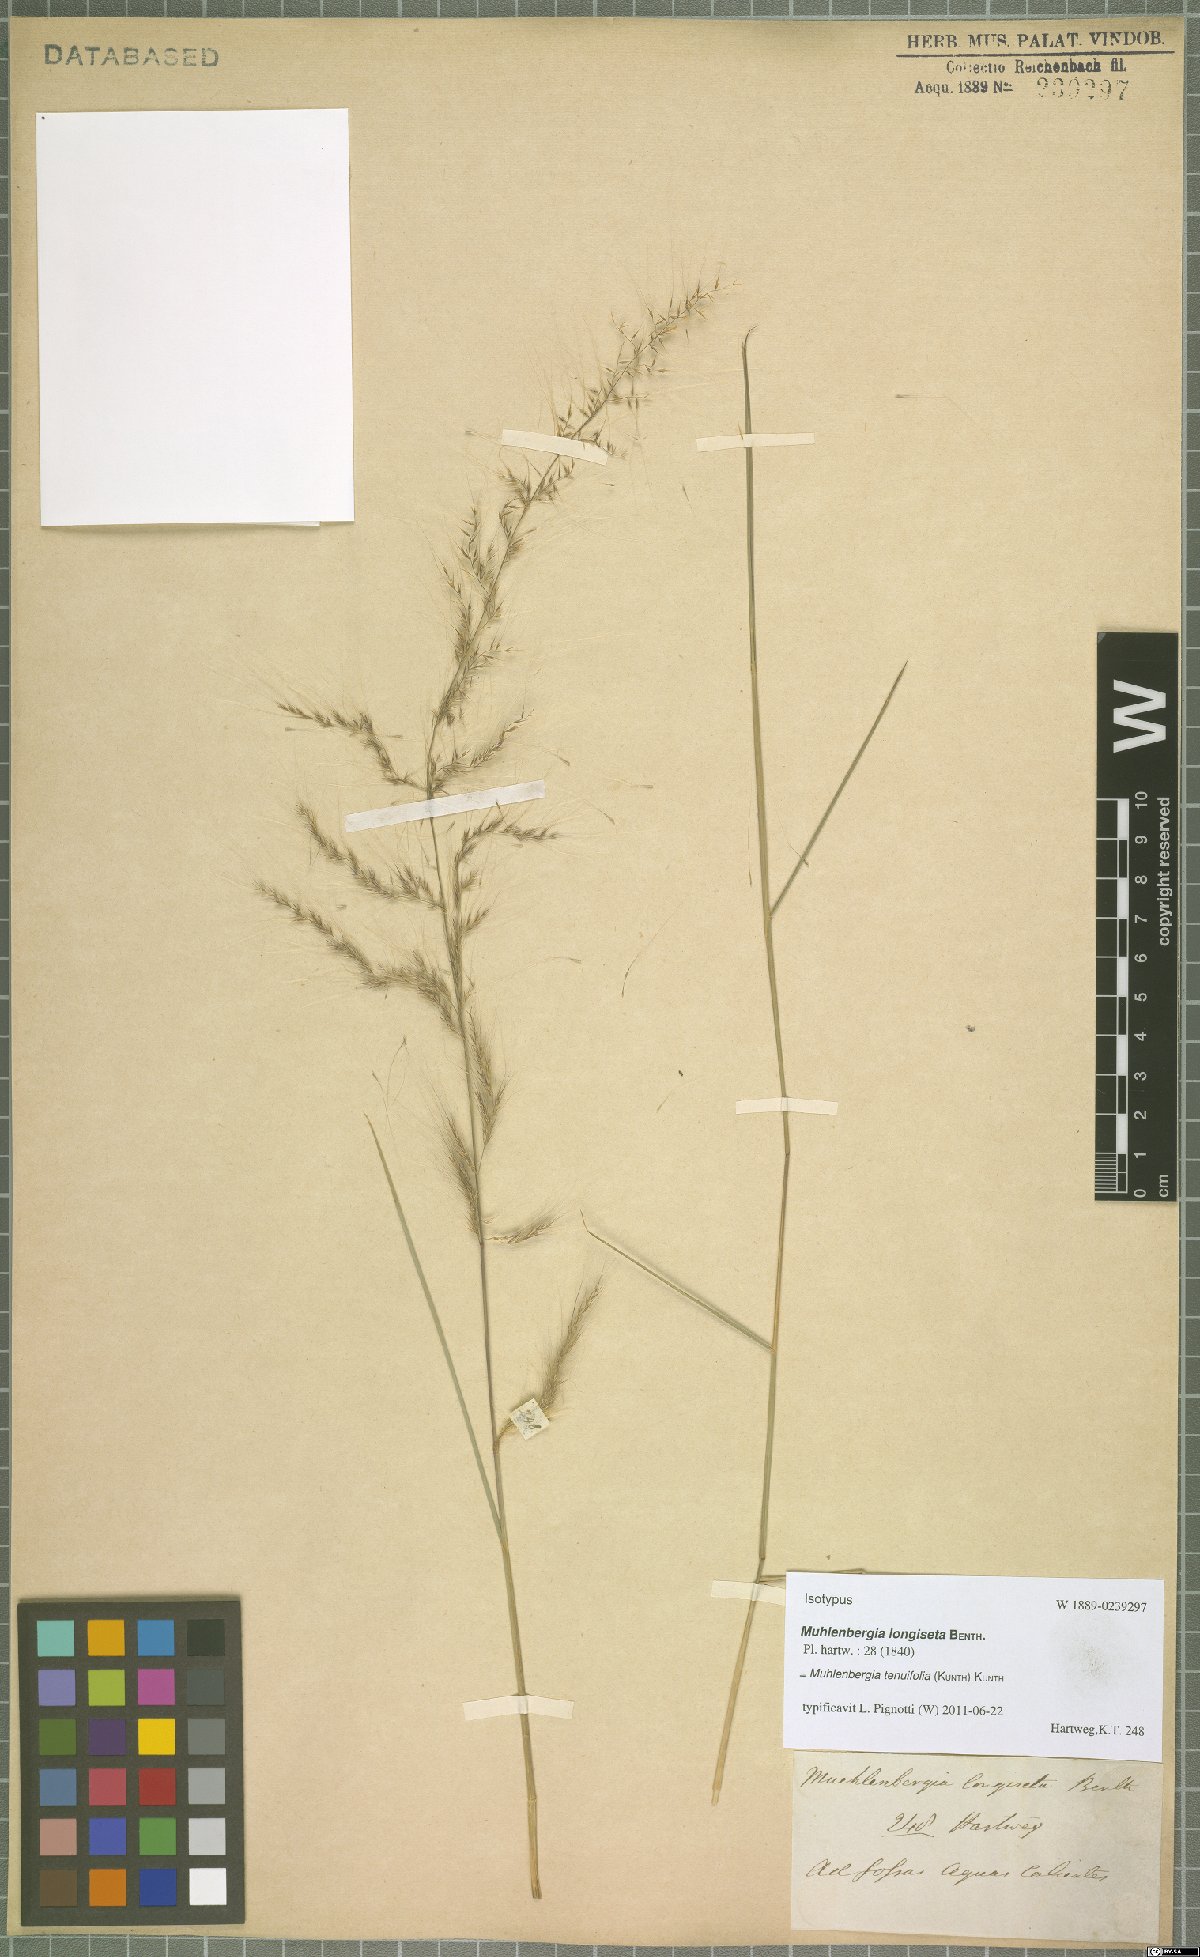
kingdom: Plantae
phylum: Tracheophyta
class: Liliopsida
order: Poales
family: Poaceae
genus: Muhlenbergia
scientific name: Muhlenbergia tenuifolia
